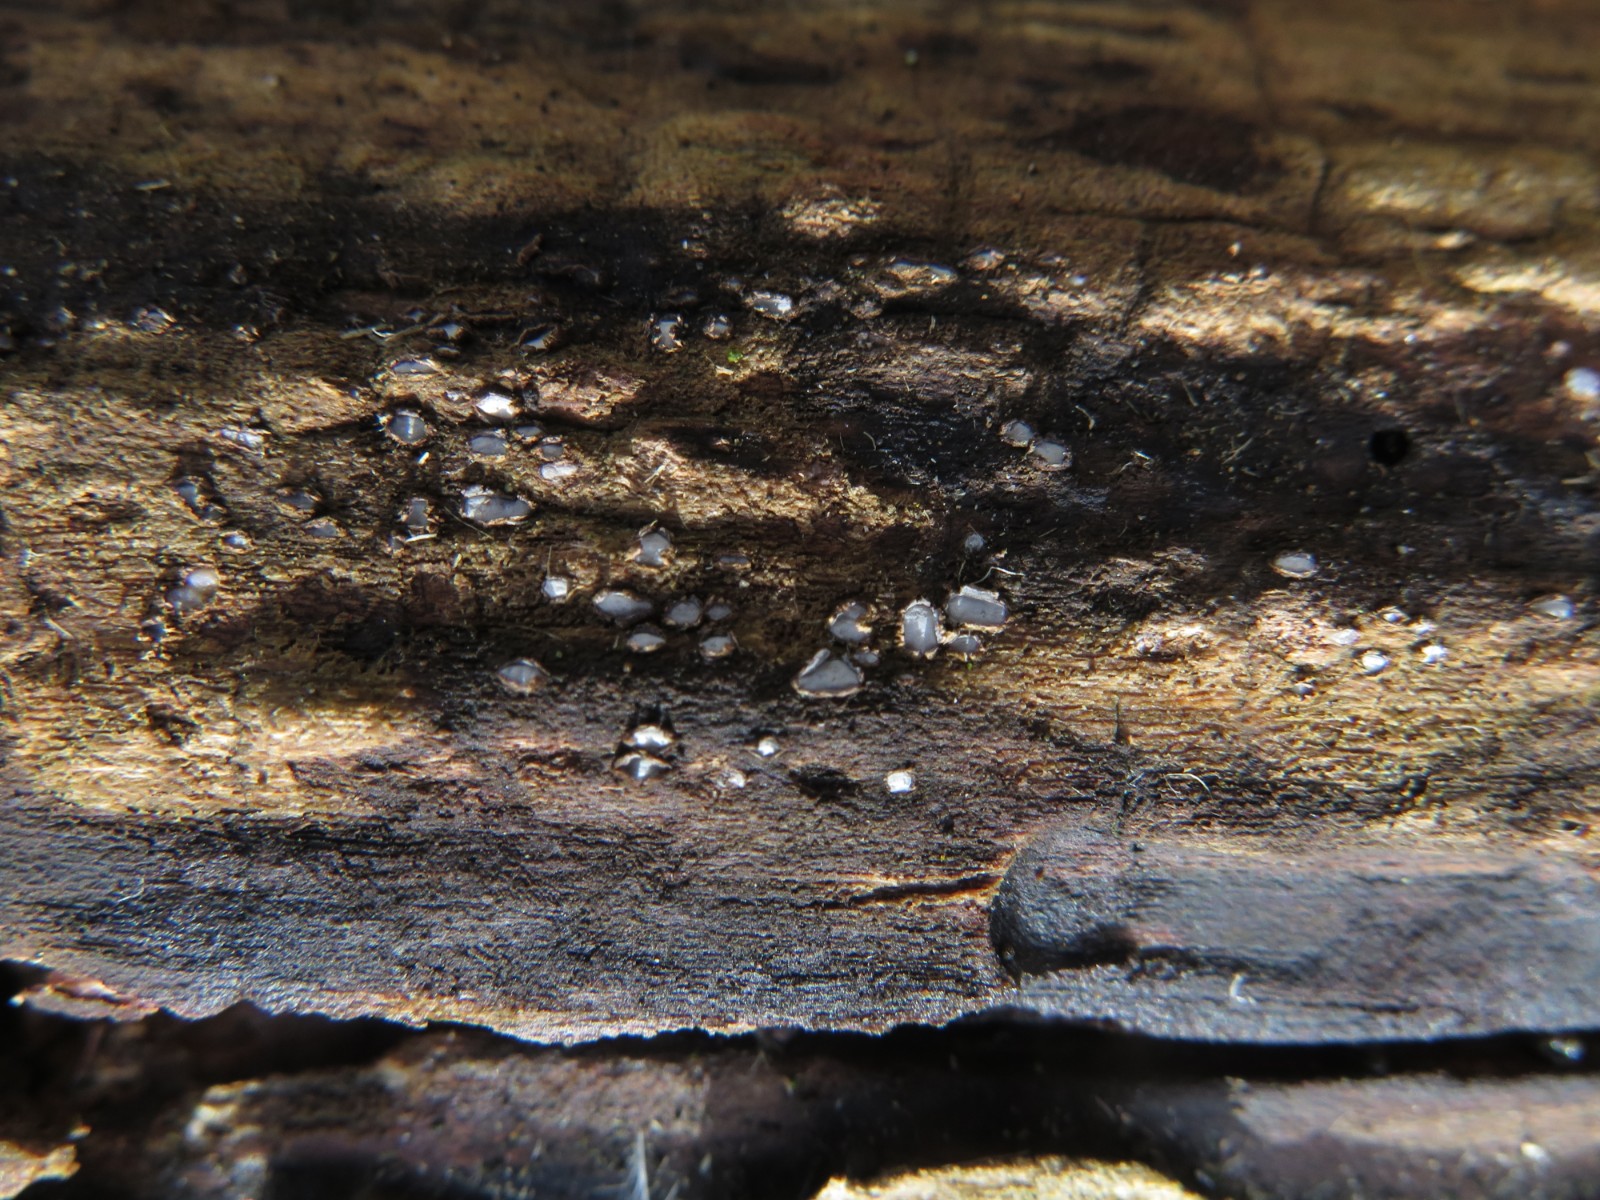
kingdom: Fungi
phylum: Ascomycota
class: Leotiomycetes
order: Chaetomellales
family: Marthamycetaceae
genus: Propolis
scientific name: Propolis farinosa
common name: almindelig vedsprængerskive
